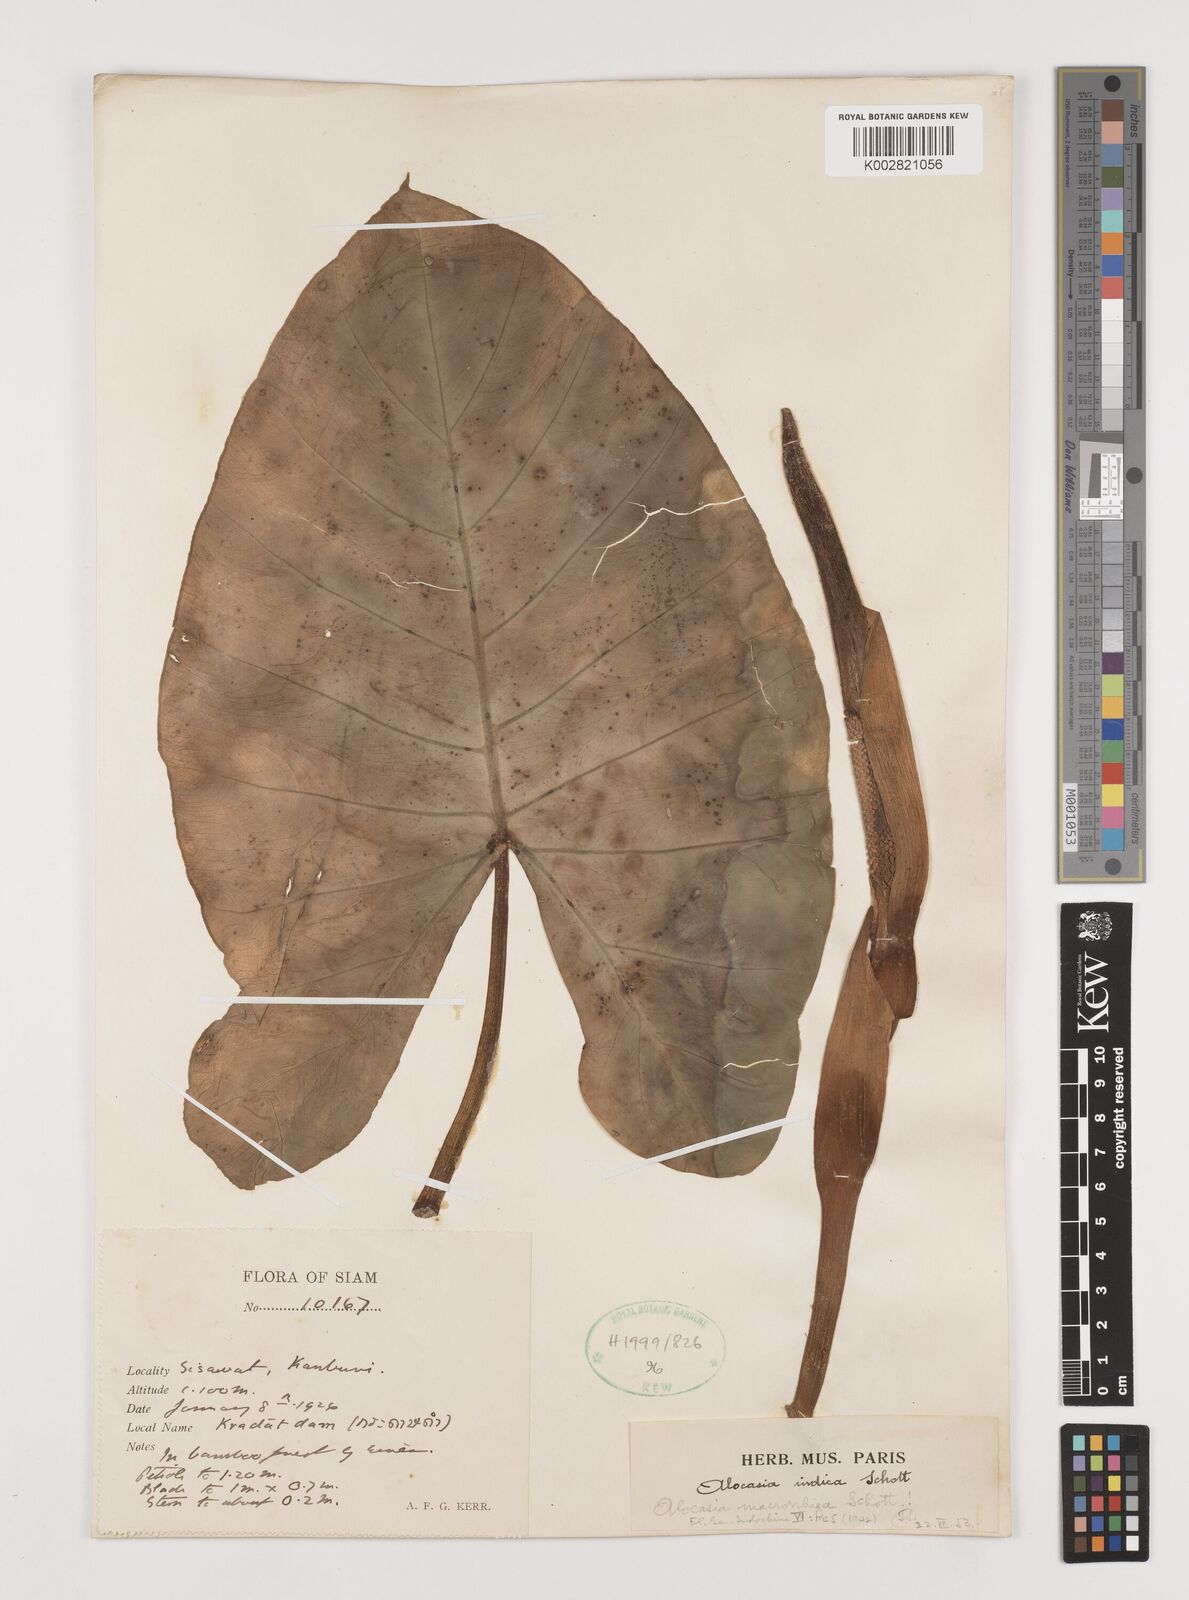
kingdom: Plantae
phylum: Tracheophyta
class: Liliopsida
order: Alismatales
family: Araceae
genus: Alocasia
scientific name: Alocasia macrorrhizos
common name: Giant taro
